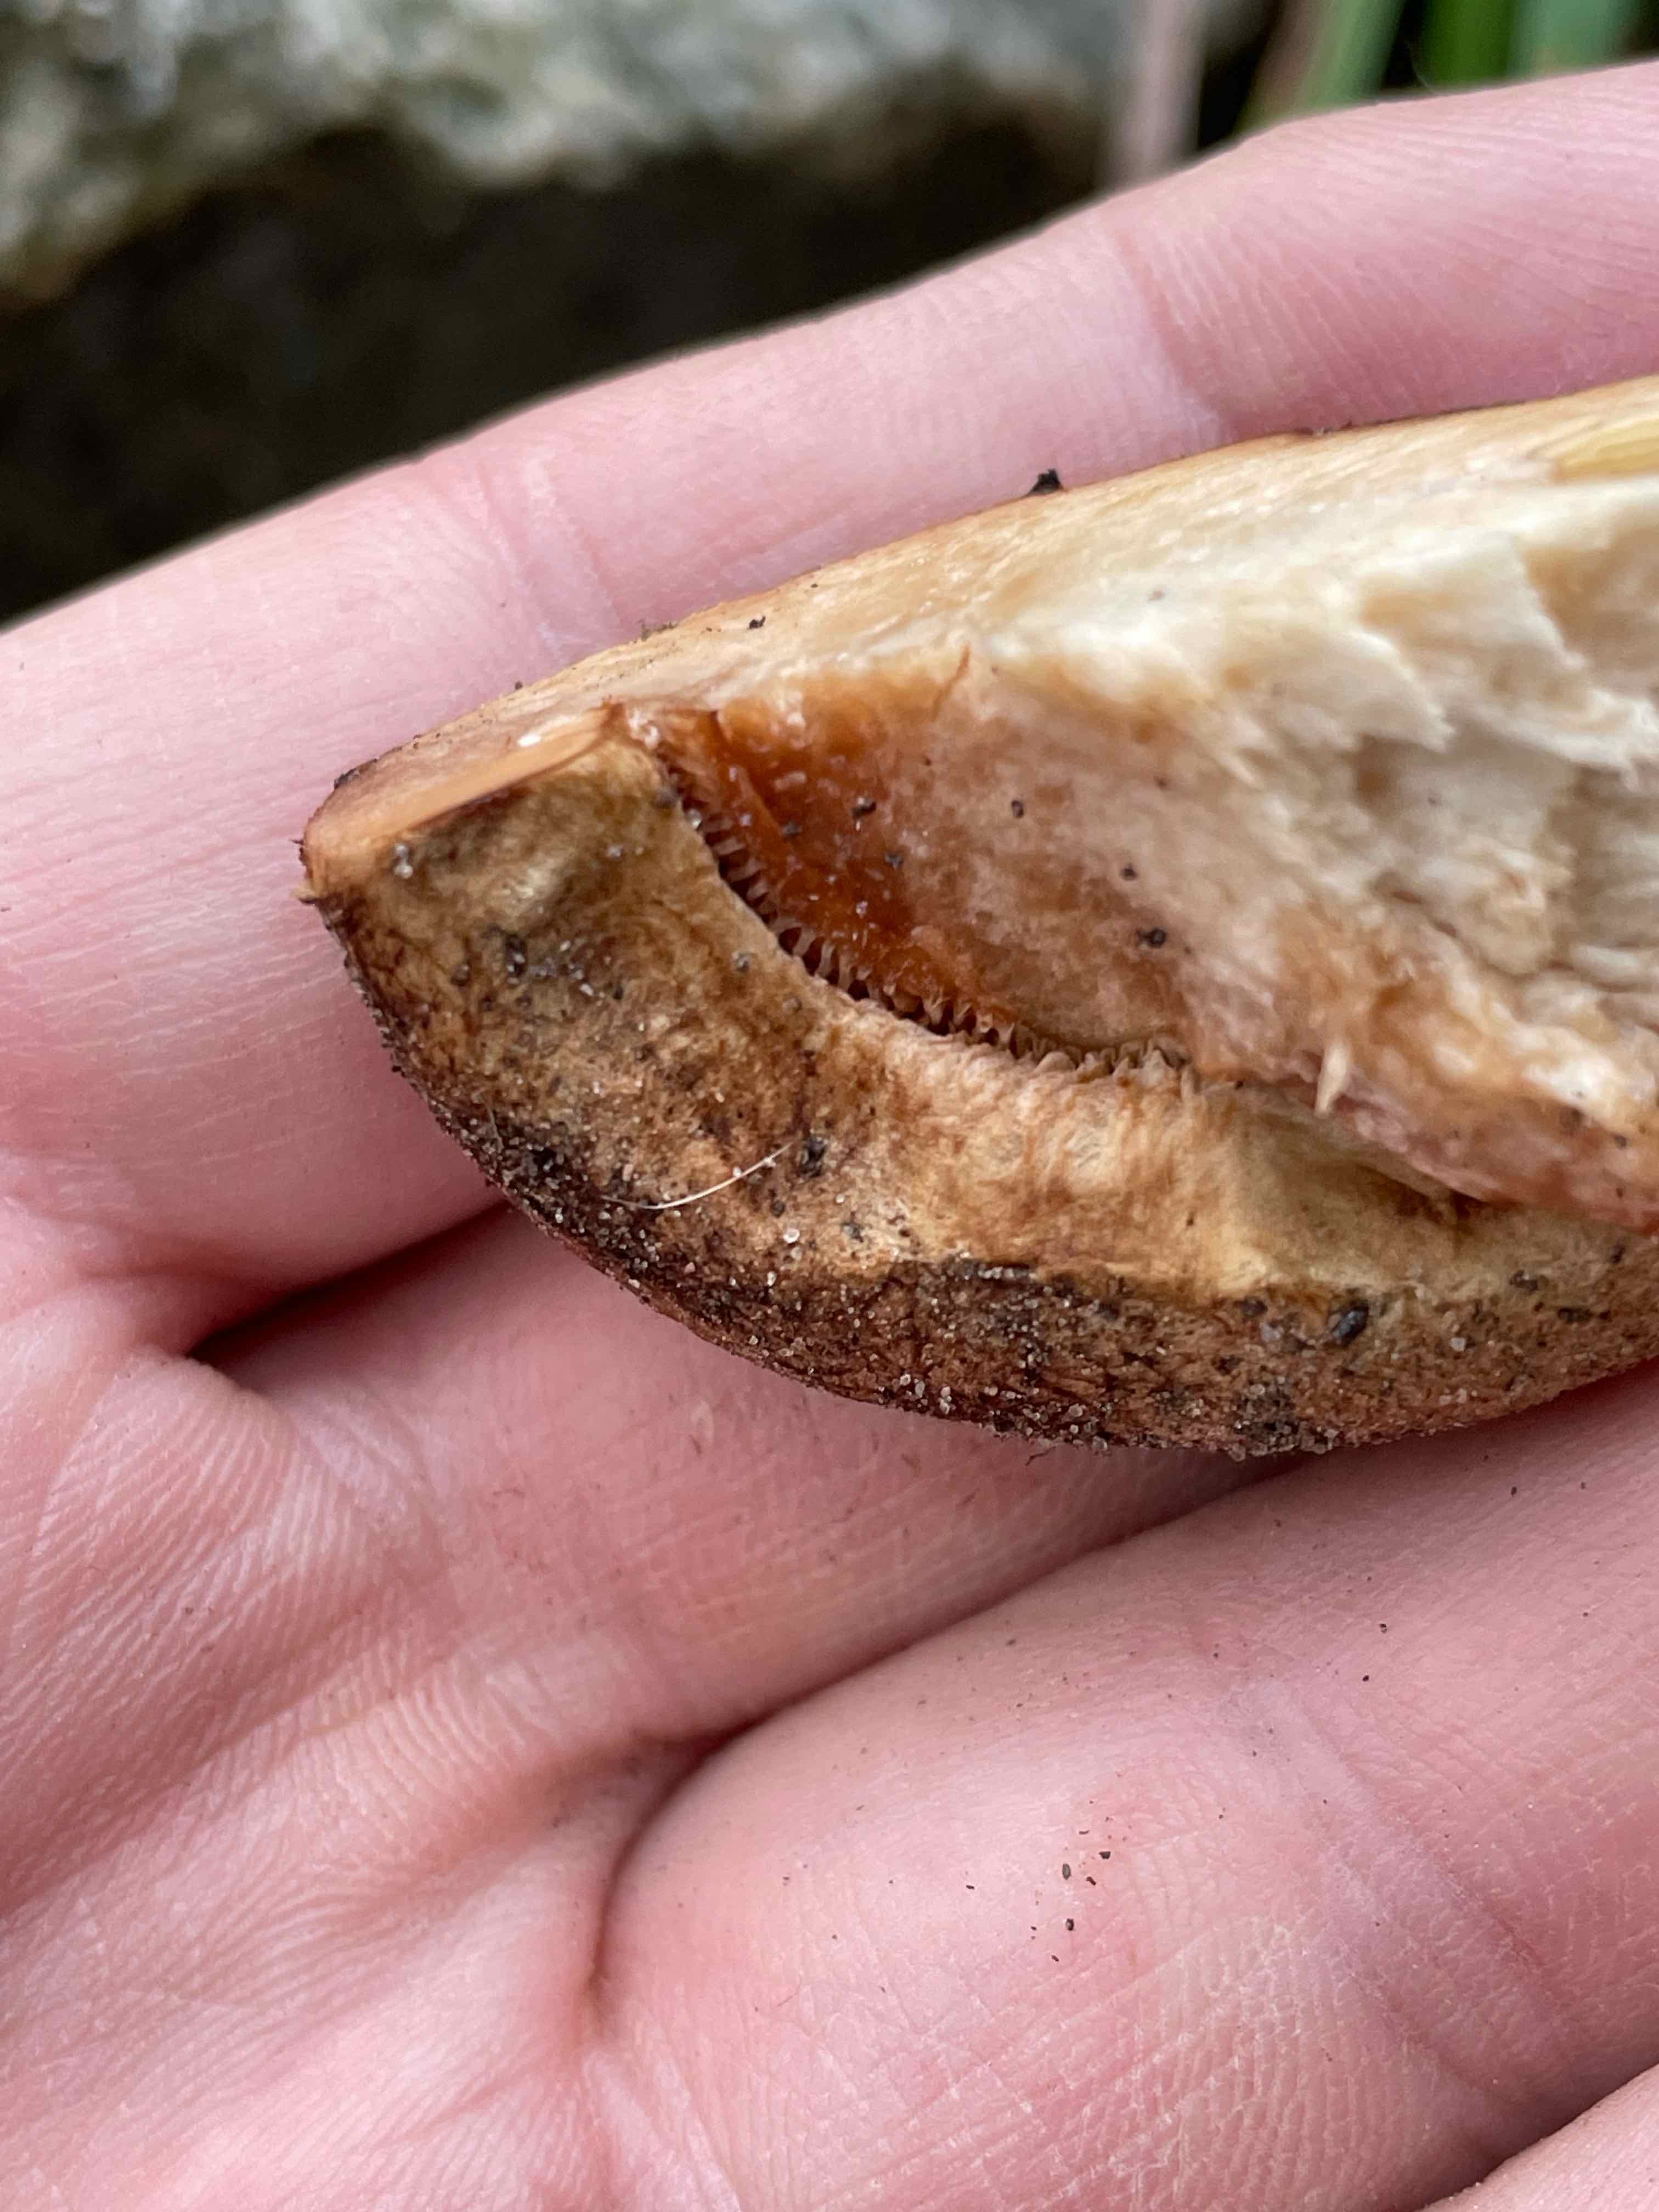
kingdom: Fungi
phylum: Basidiomycota
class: Agaricomycetes
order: Boletales
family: Paxillaceae
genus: Paxillus
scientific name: Paxillus rubicundulus
